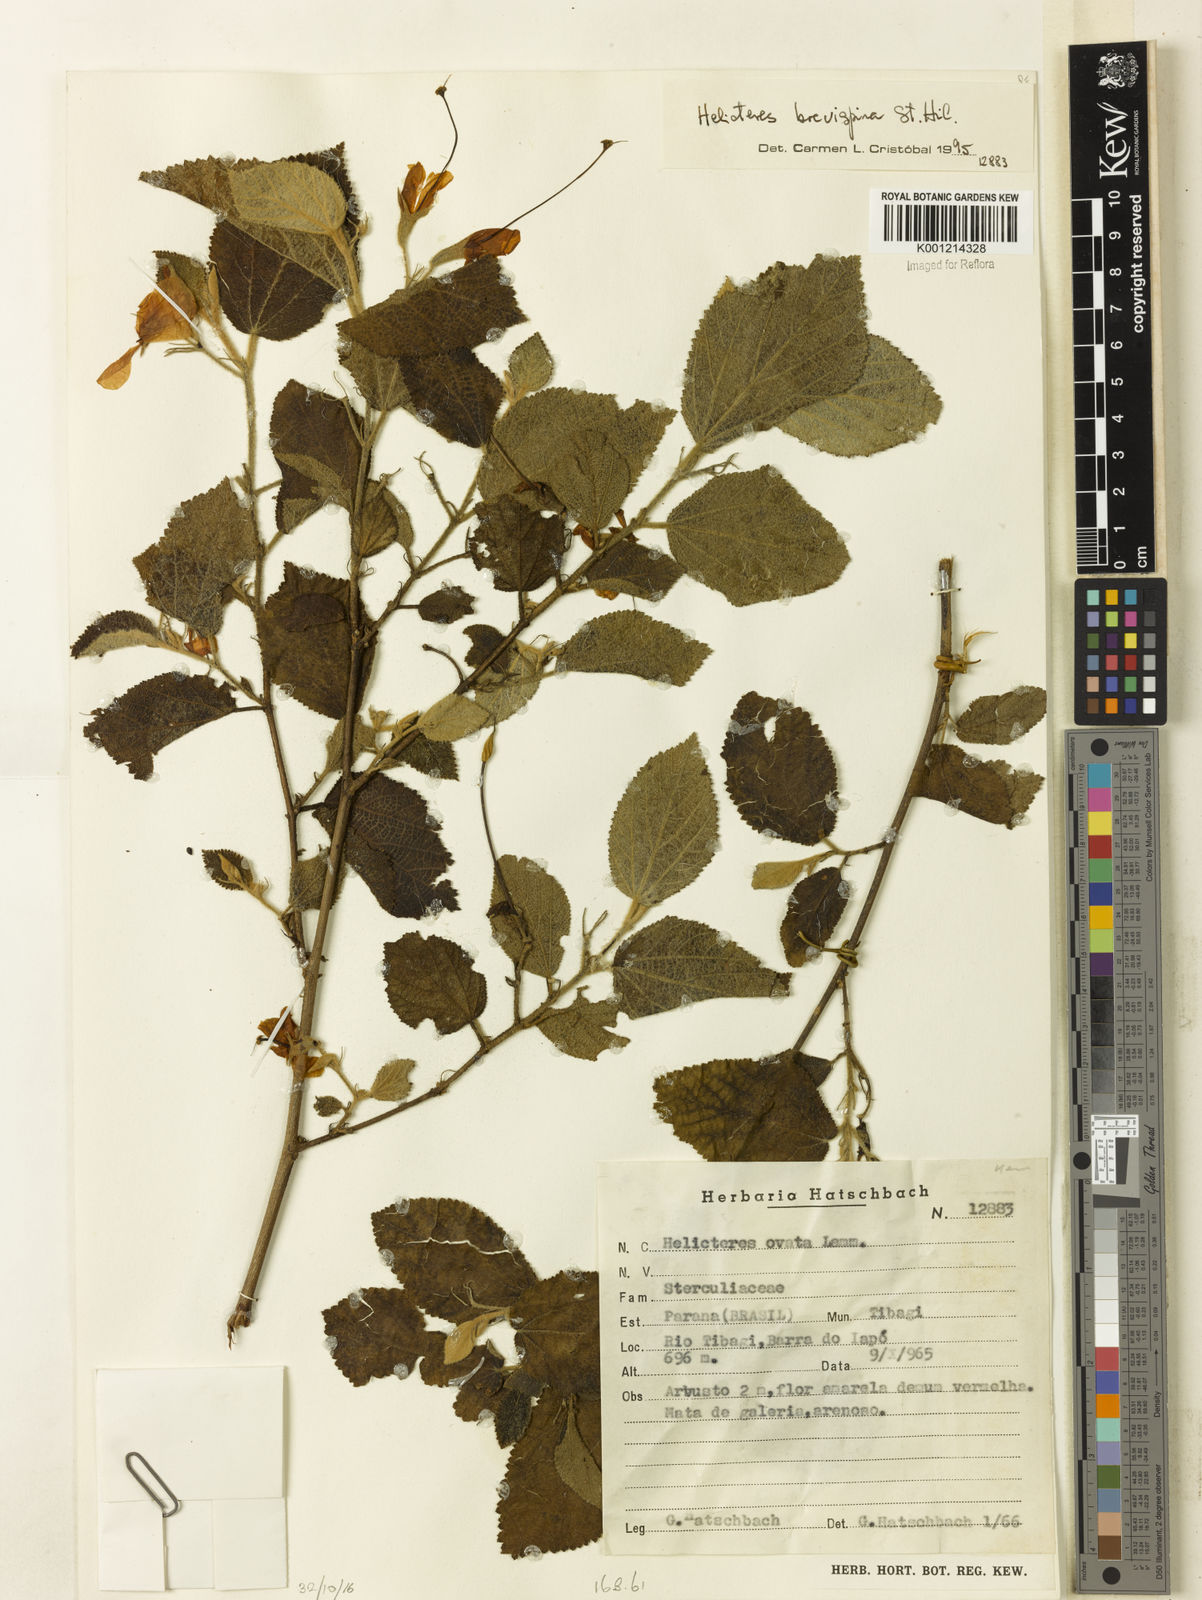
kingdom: Plantae
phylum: Tracheophyta
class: Magnoliopsida
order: Malvales
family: Malvaceae
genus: Helicteres
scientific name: Helicteres
